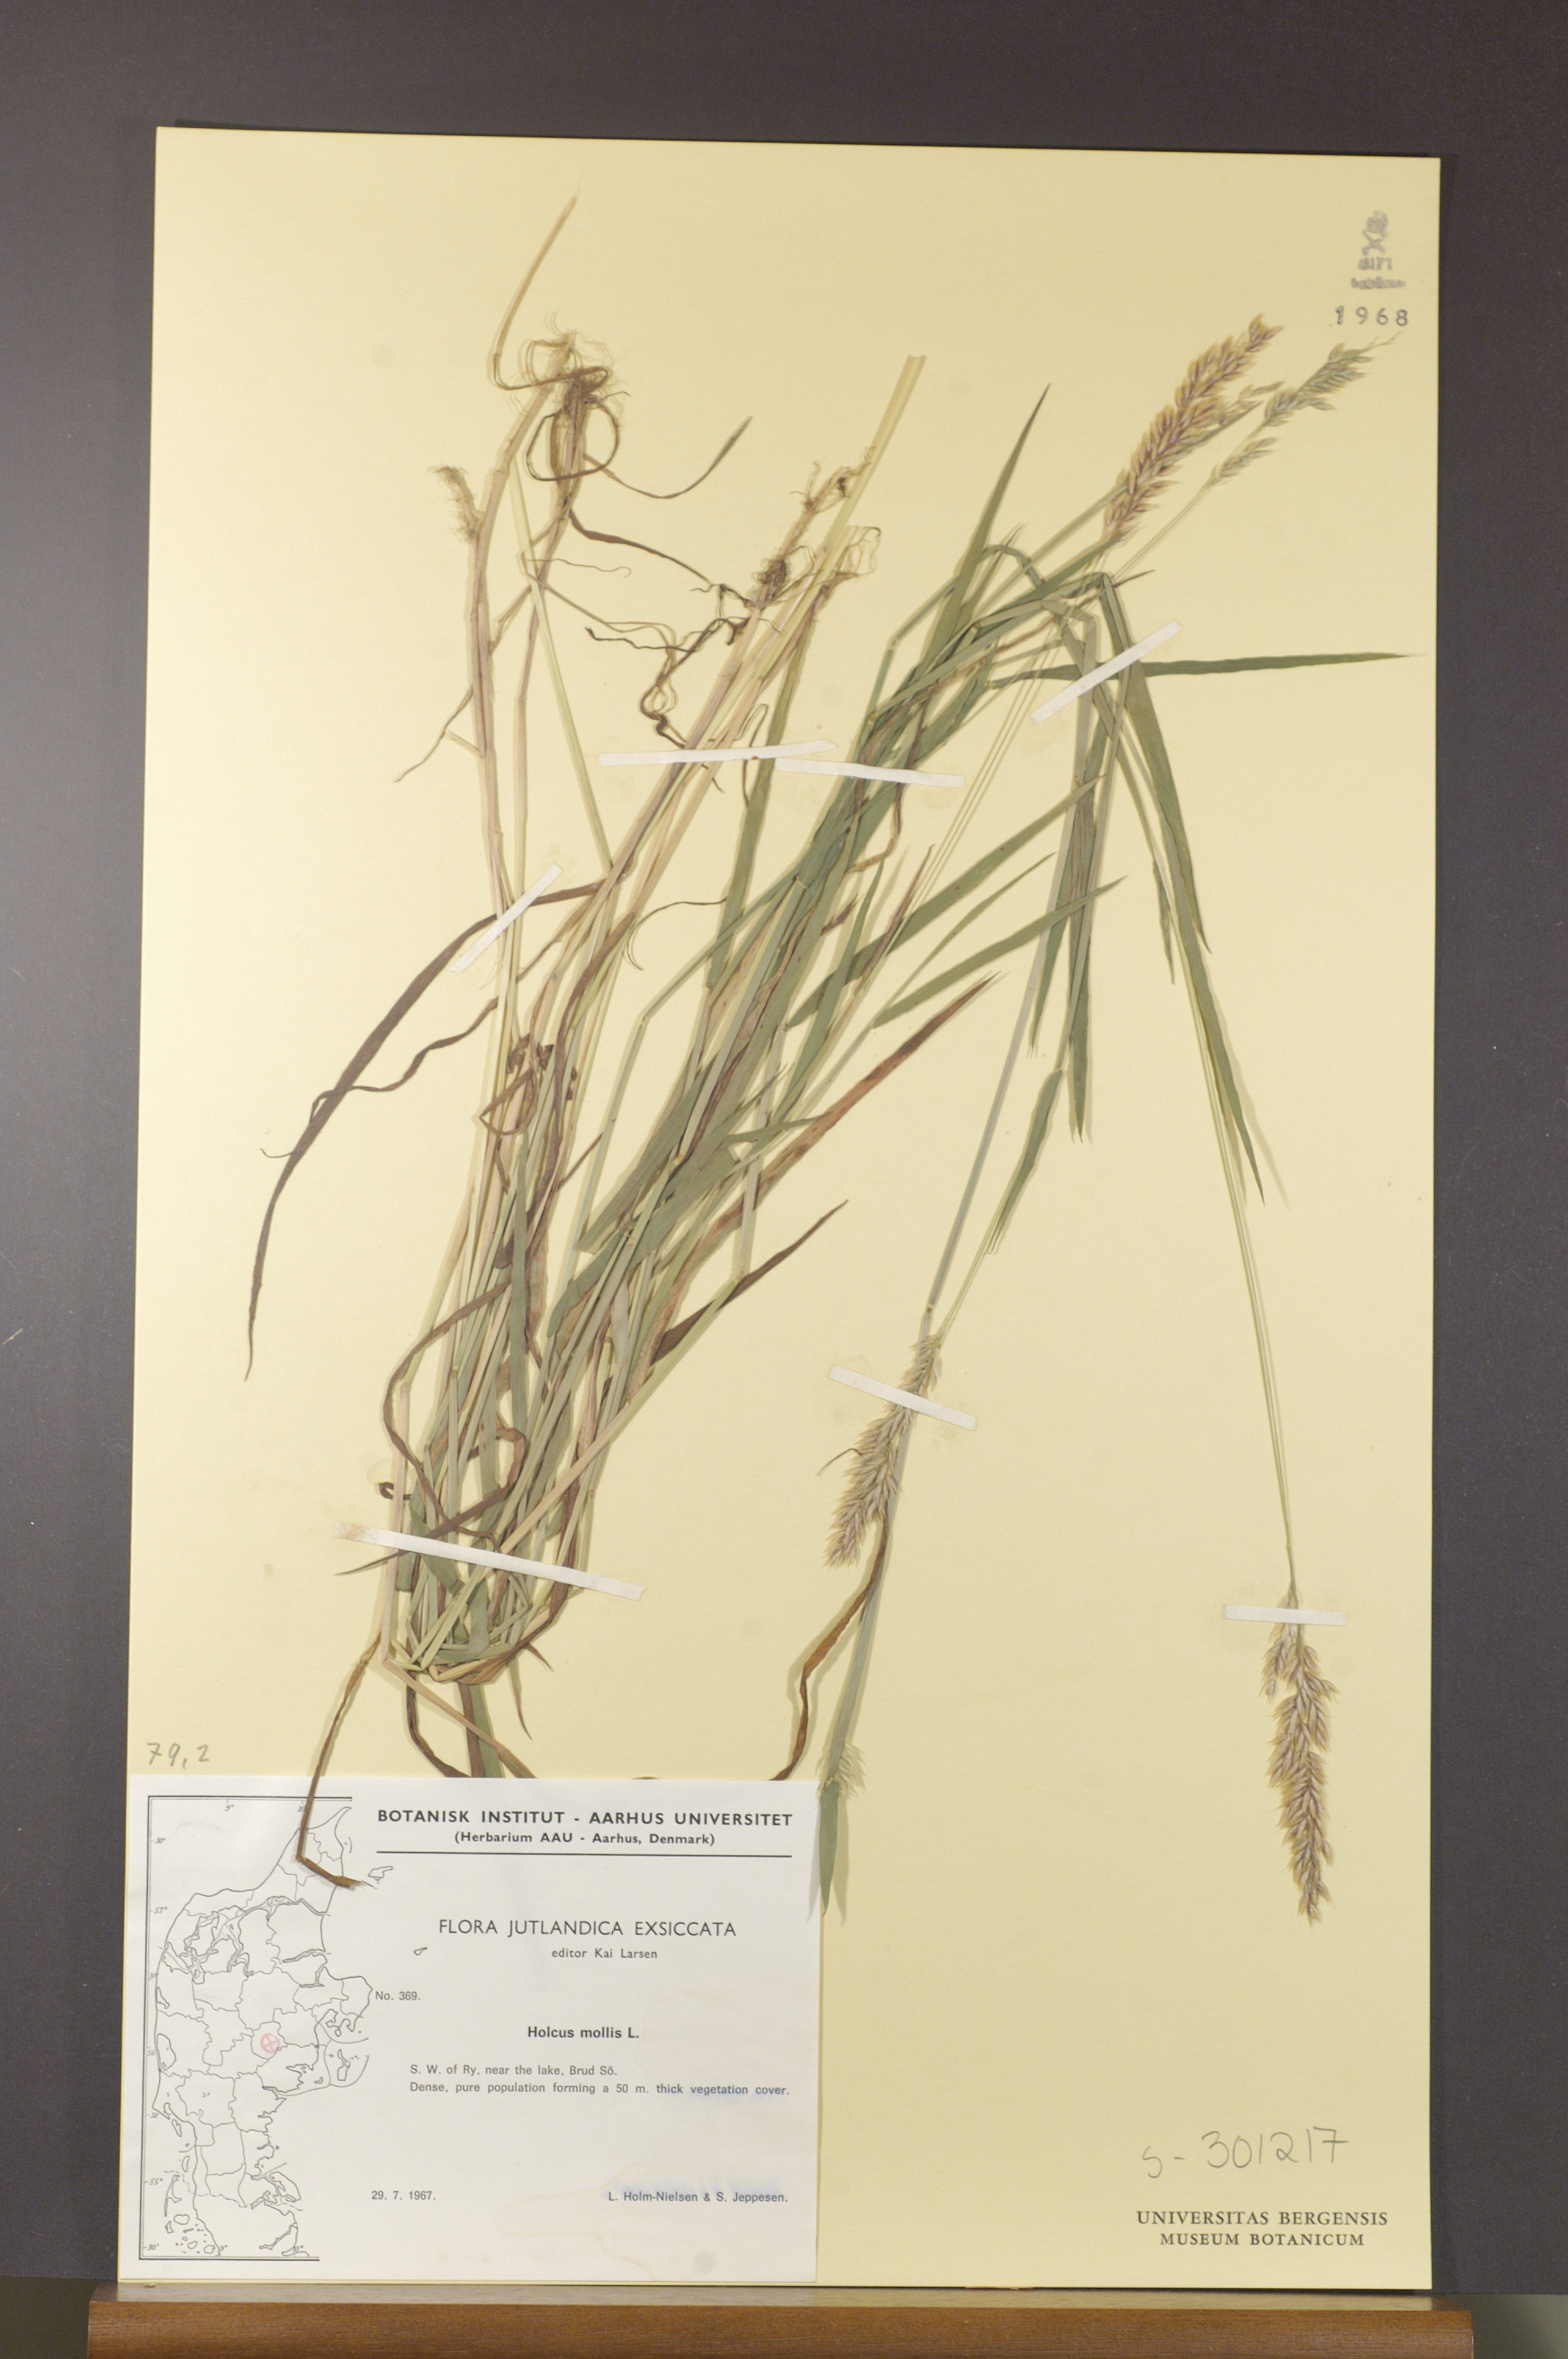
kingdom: Plantae
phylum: Tracheophyta
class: Liliopsida
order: Poales
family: Poaceae
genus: Holcus
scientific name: Holcus mollis
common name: Creeping velvetgrass
